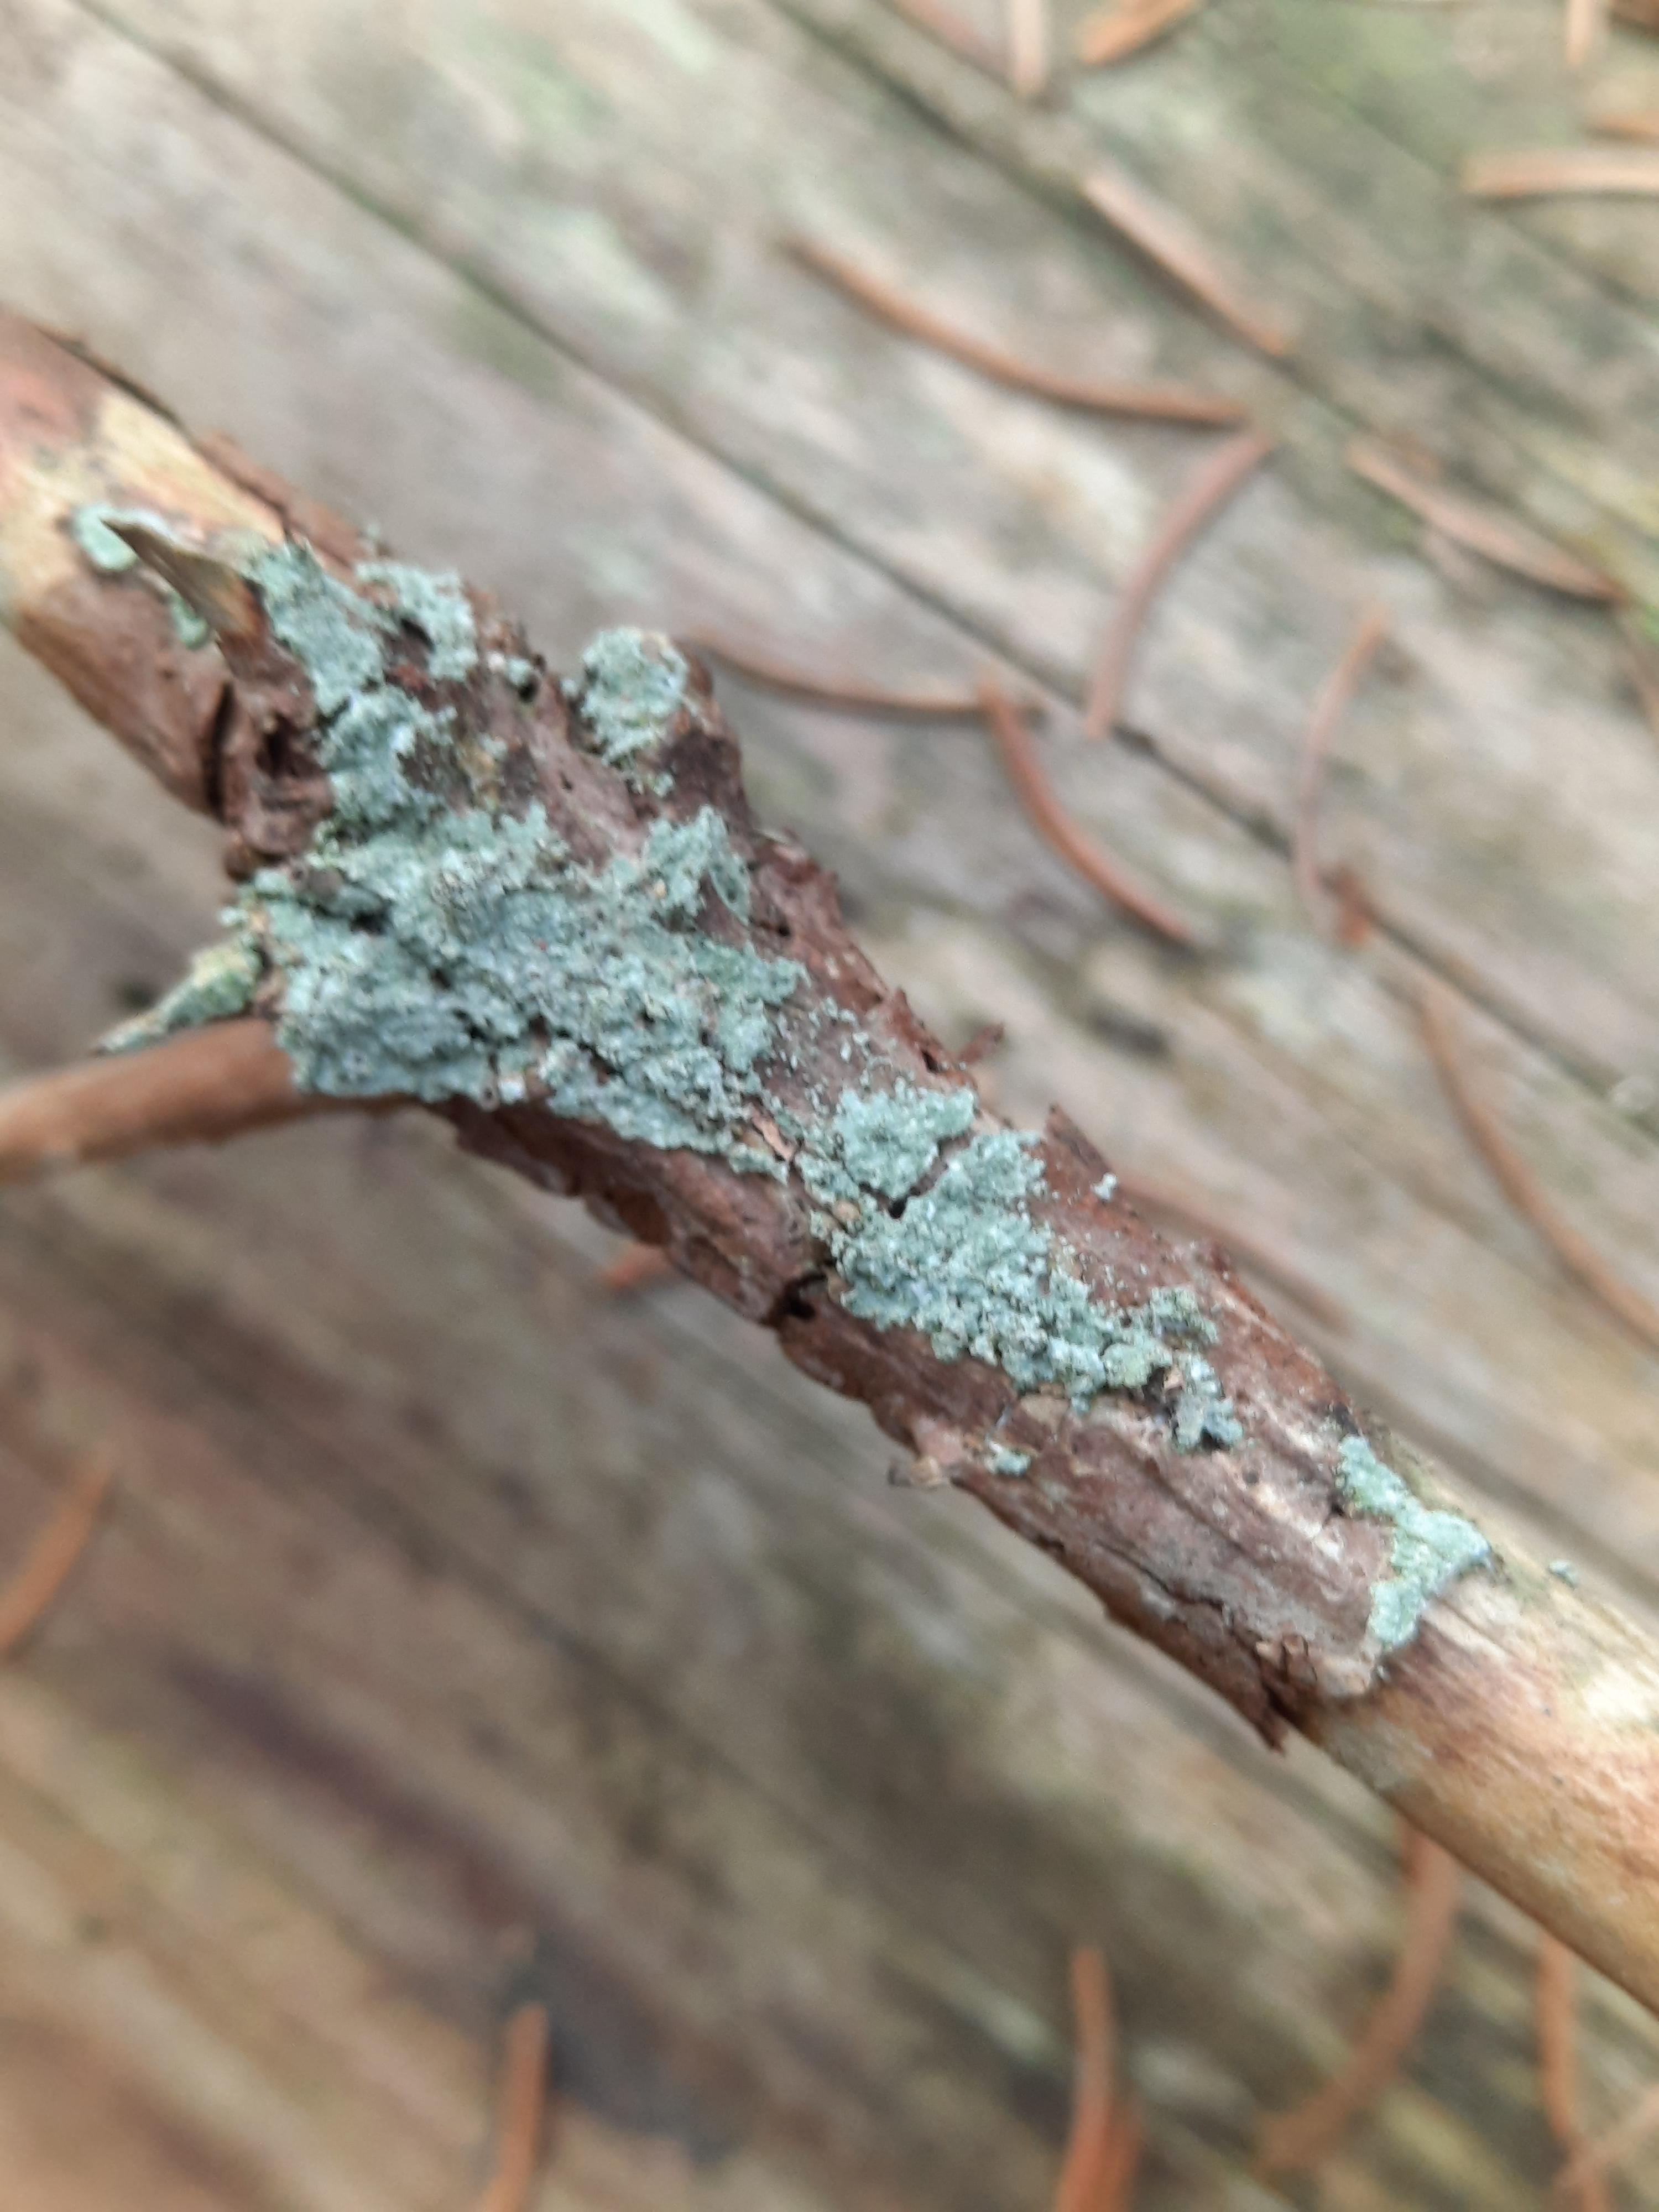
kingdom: Fungi
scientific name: Fungi
